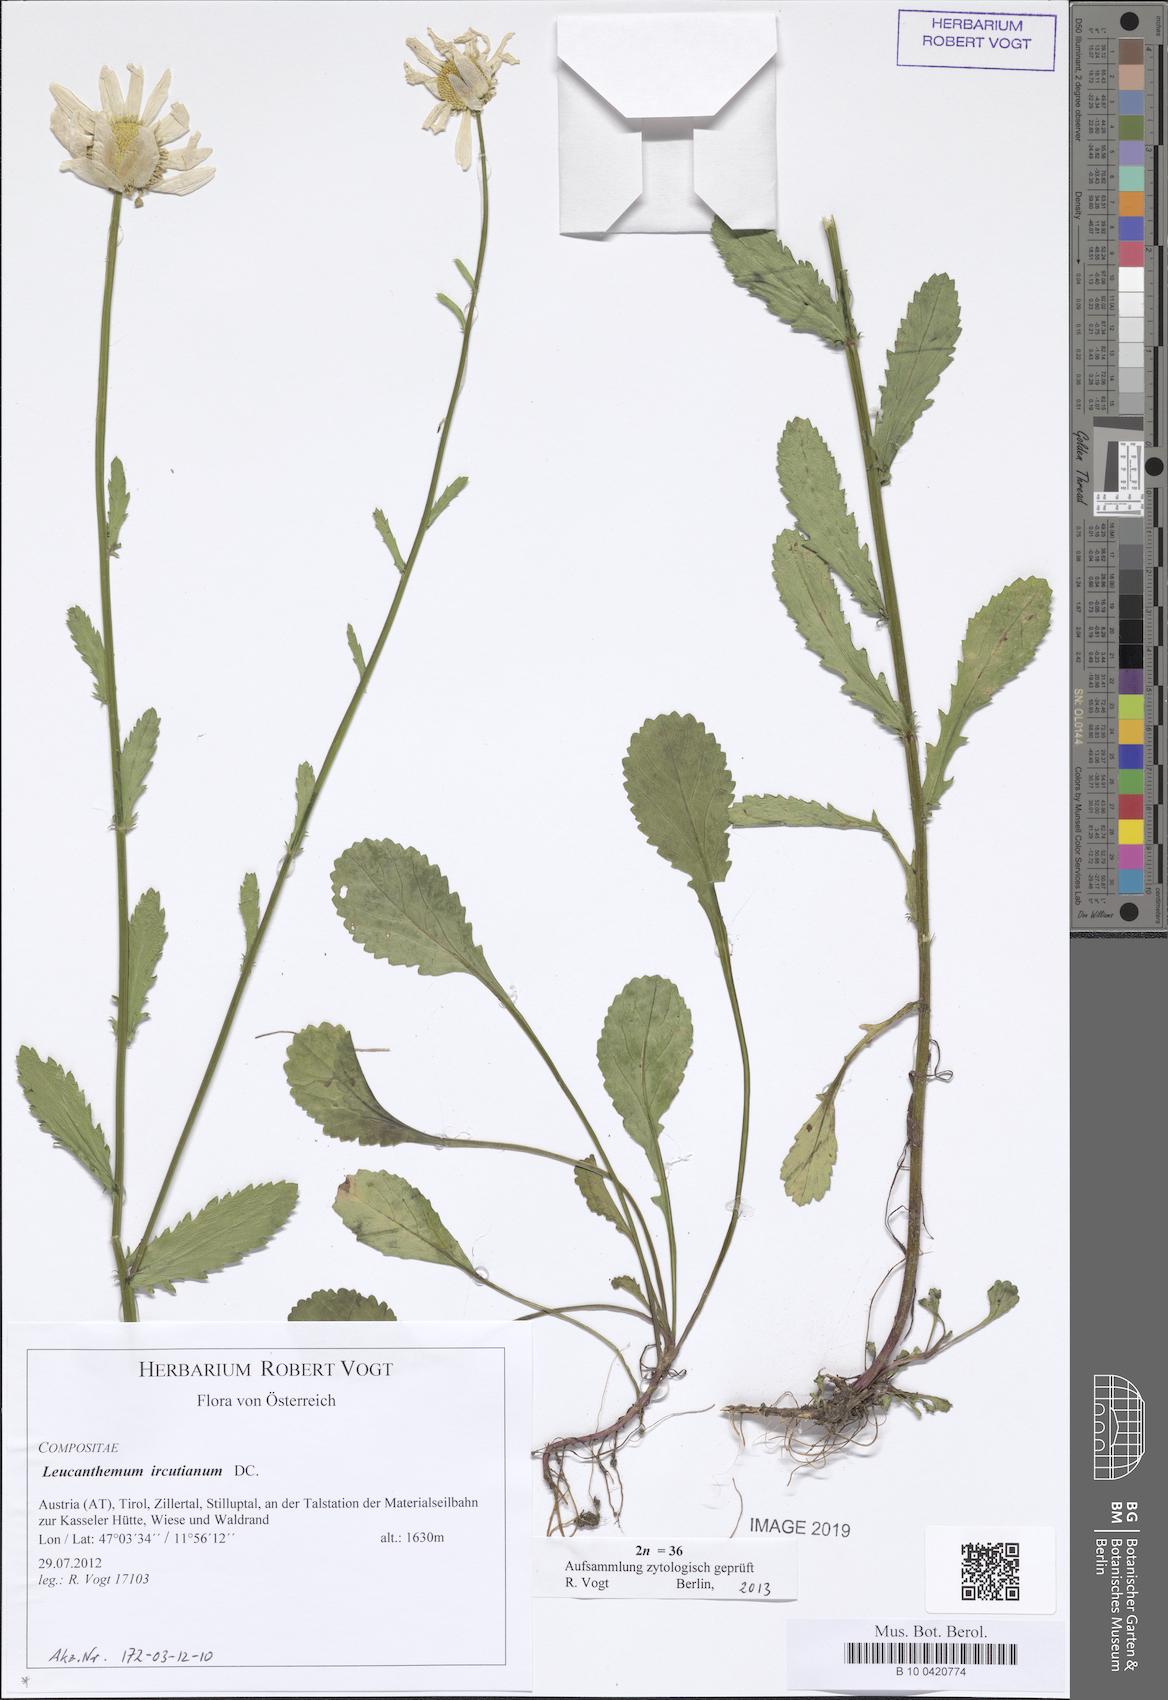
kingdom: Plantae
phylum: Tracheophyta
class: Magnoliopsida
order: Asterales
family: Asteraceae
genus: Leucanthemum
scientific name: Leucanthemum ircutianum
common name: Daisy
